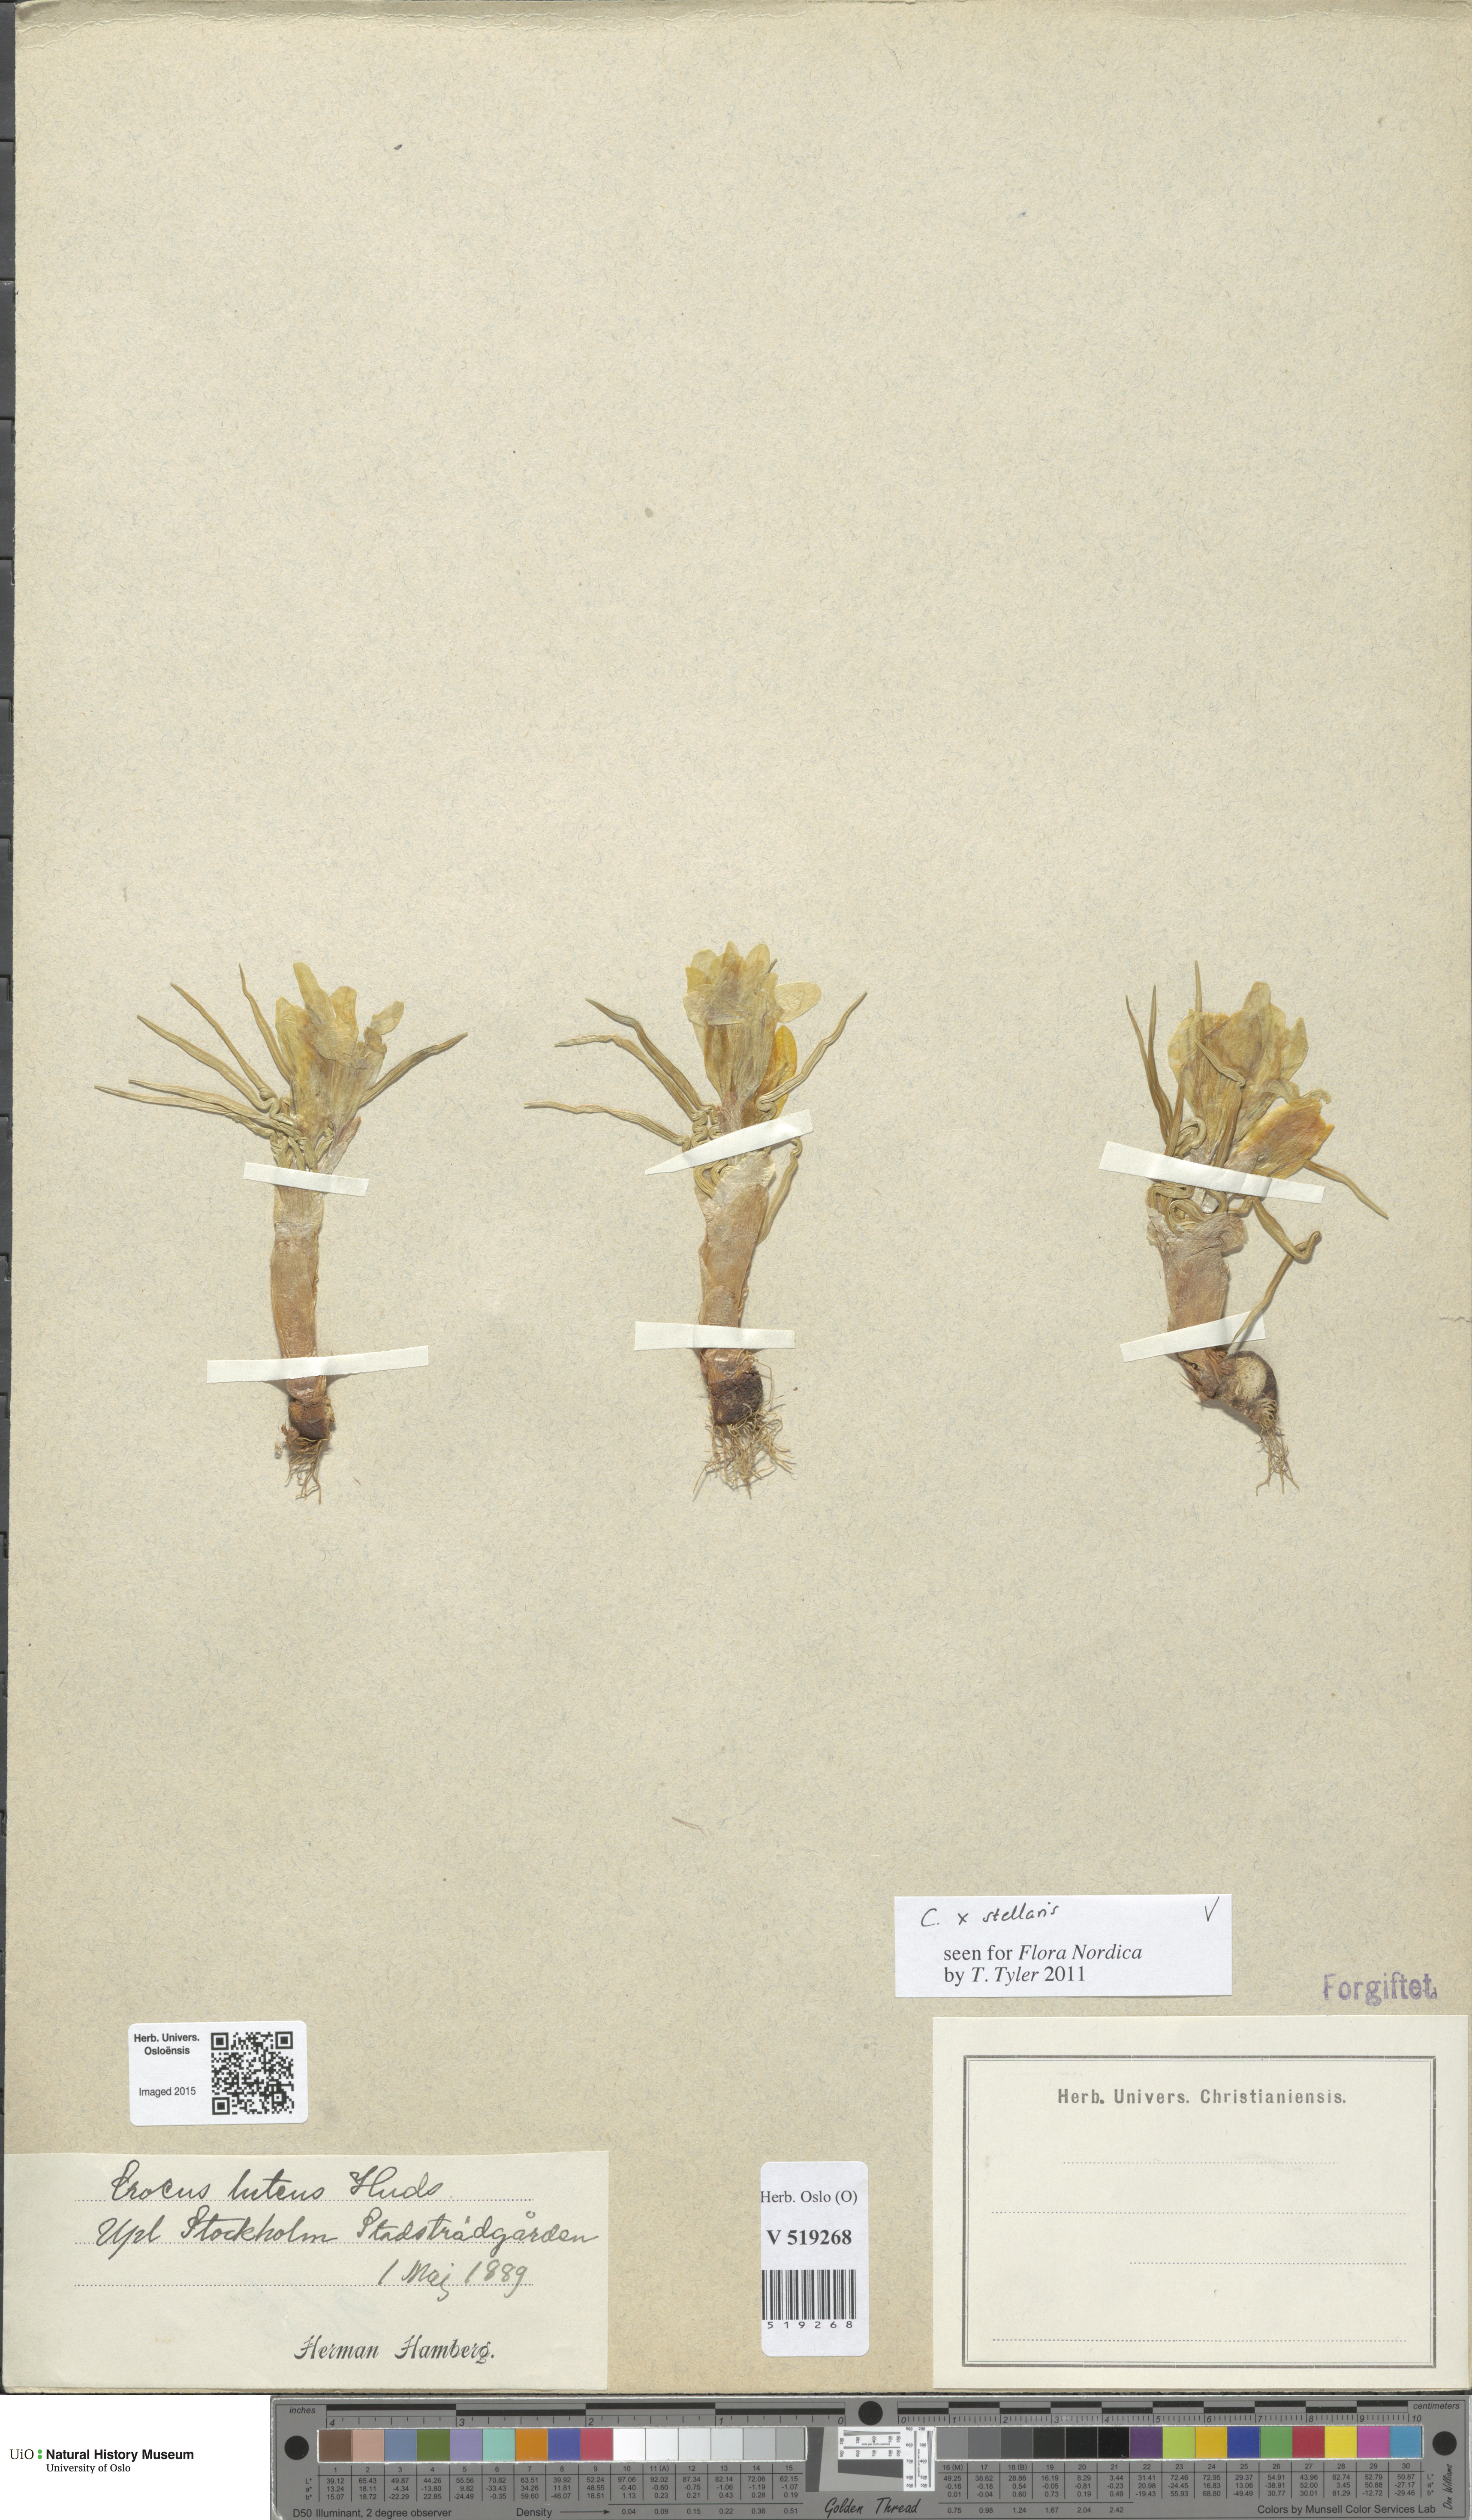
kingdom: Plantae
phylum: Tracheophyta
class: Liliopsida
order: Asparagales
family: Iridaceae
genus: Crocus
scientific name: Crocus luteus
